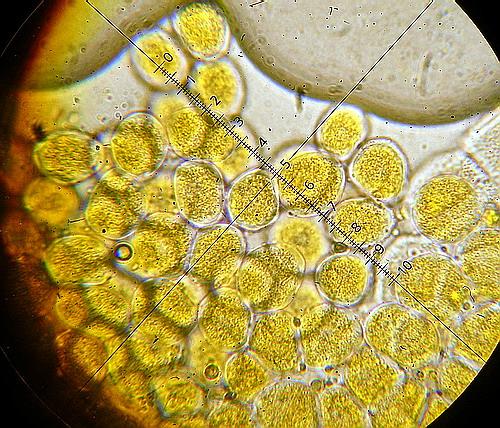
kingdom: Fungi
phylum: Basidiomycota
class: Pucciniomycetes
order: Pucciniales
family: Pucciniaceae
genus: Puccinia
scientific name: Puccinia pulverulenta
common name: dueurt-tvecellerust
